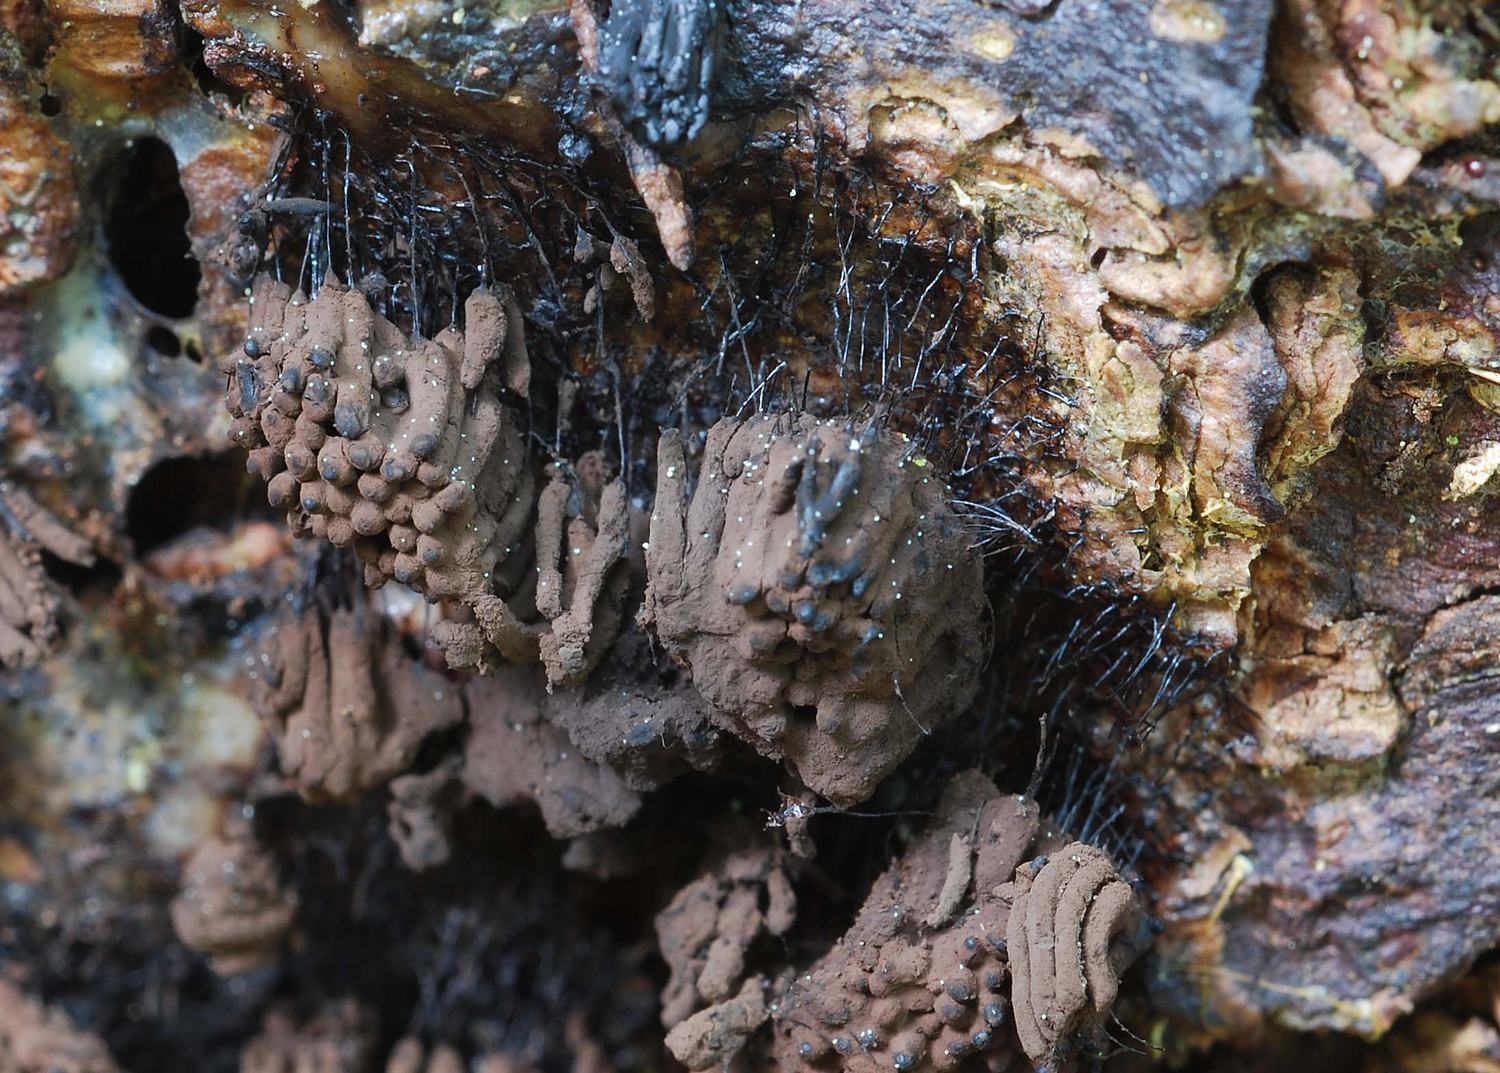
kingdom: Protozoa
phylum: Mycetozoa
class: Myxomycetes
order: Stemonitidales
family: Stemonitidaceae
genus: Stemonitis
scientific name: Stemonitis fusca
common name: sodbrun støvkølle
